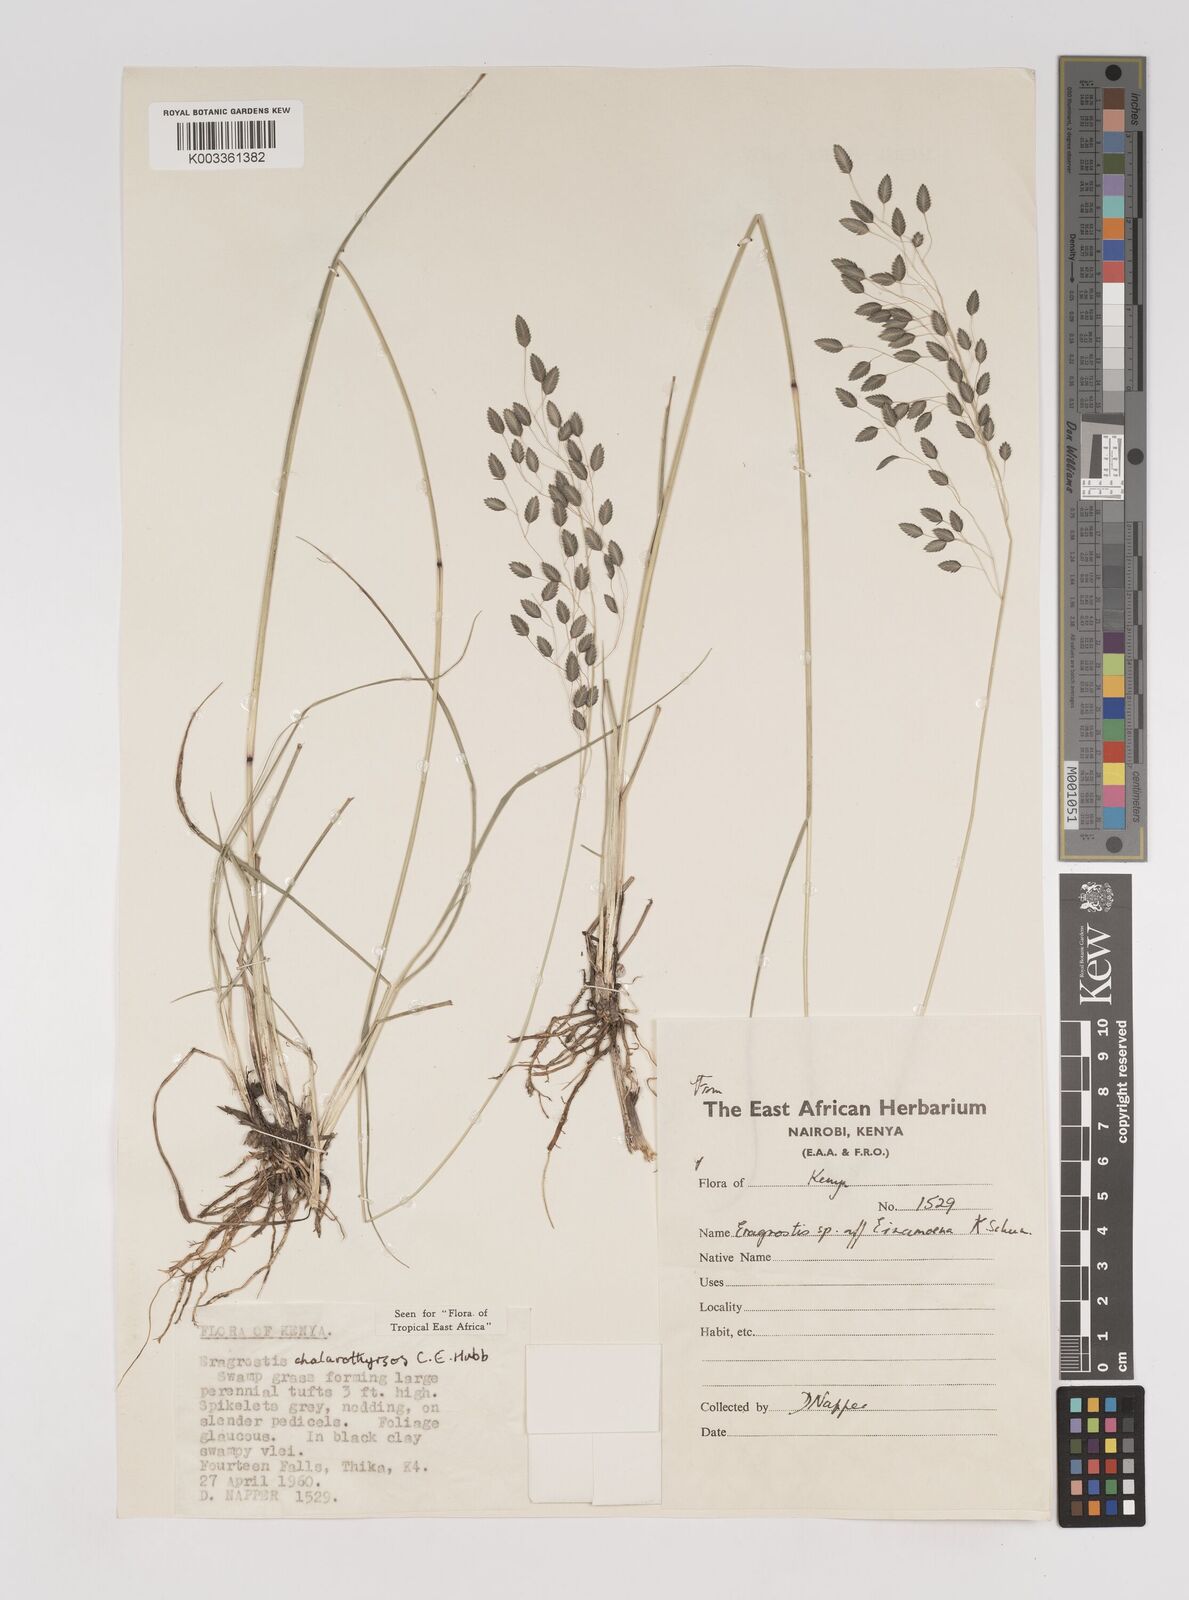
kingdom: Plantae
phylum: Tracheophyta
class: Liliopsida
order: Poales
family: Poaceae
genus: Eragrostis
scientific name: Eragrostis chalarothyrsos
